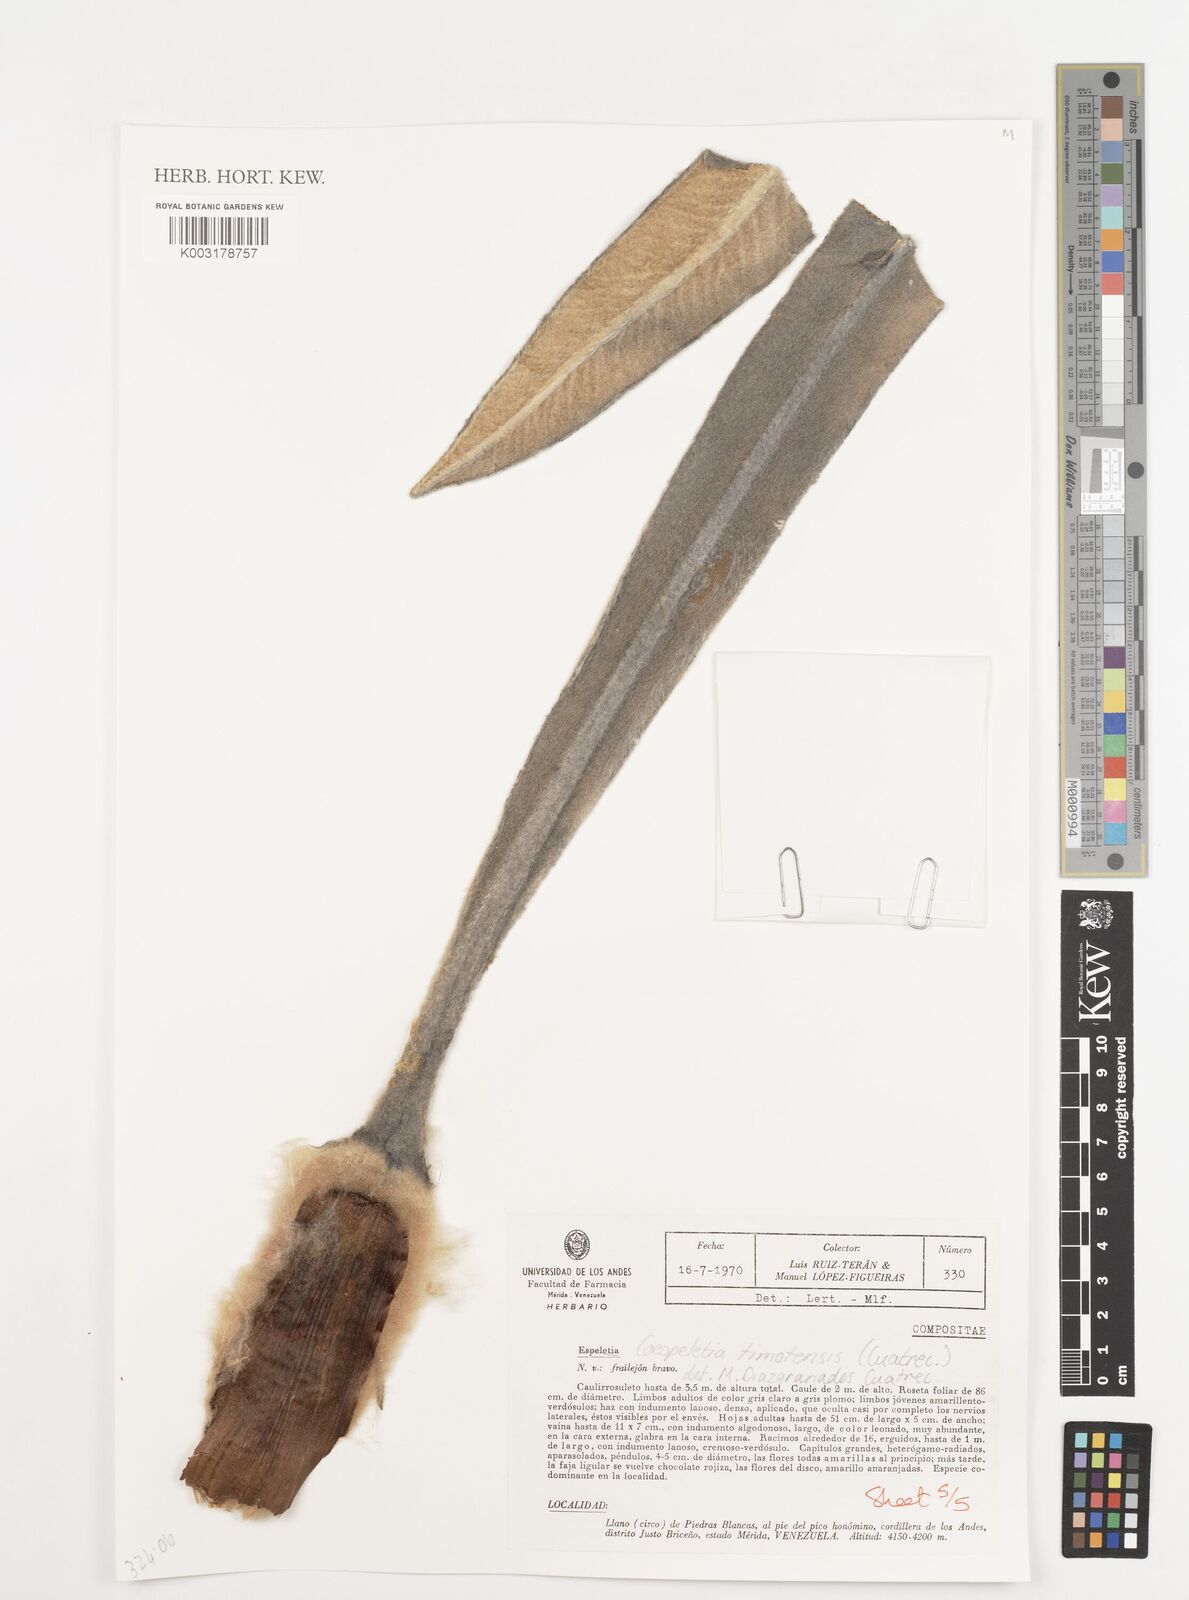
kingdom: Plantae
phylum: Tracheophyta
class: Magnoliopsida
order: Asterales
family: Asteraceae
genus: Espeletia
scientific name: Espeletia timotensis
